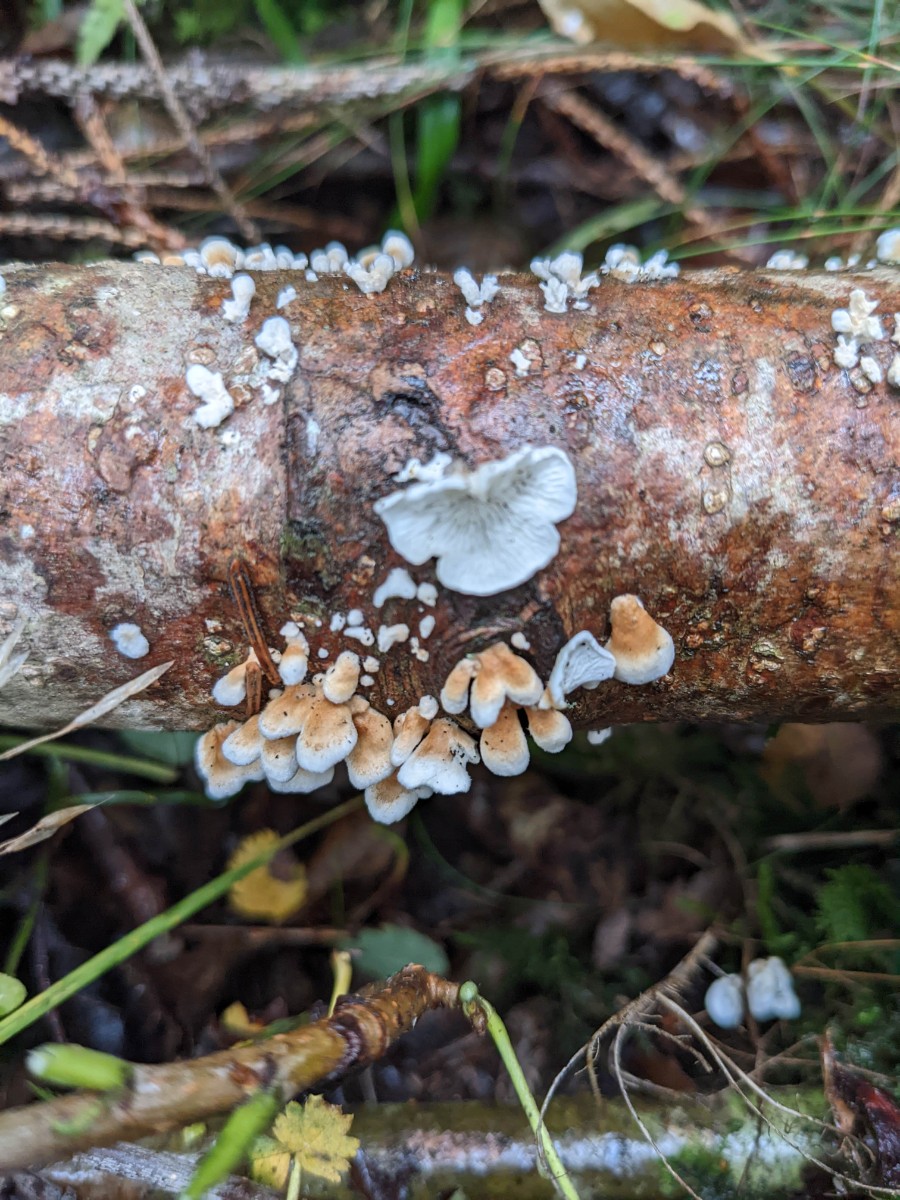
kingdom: Fungi
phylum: Basidiomycota
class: Agaricomycetes
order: Amylocorticiales
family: Amylocorticiaceae
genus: Plicaturopsis
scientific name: Plicaturopsis crispa
